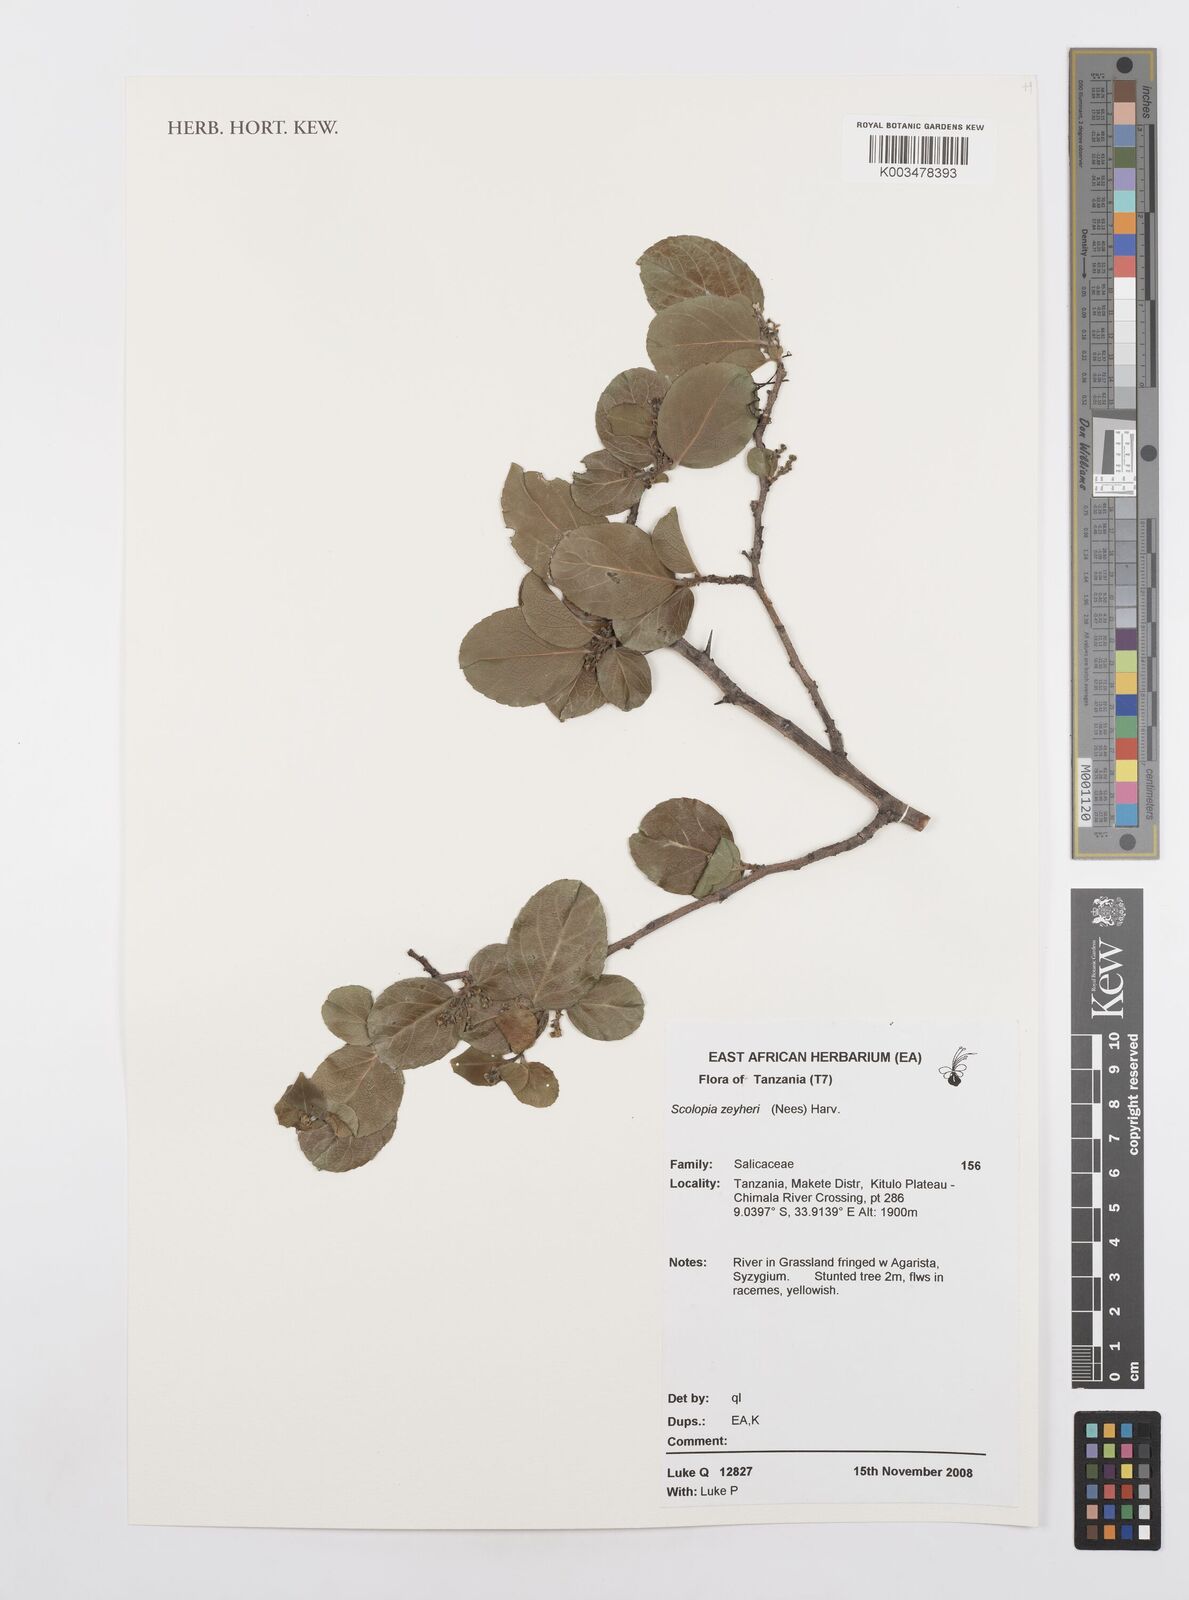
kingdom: Plantae
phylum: Tracheophyta
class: Magnoliopsida
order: Malpighiales
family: Salicaceae
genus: Scolopia
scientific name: Scolopia zeyheri
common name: Thorn pear
